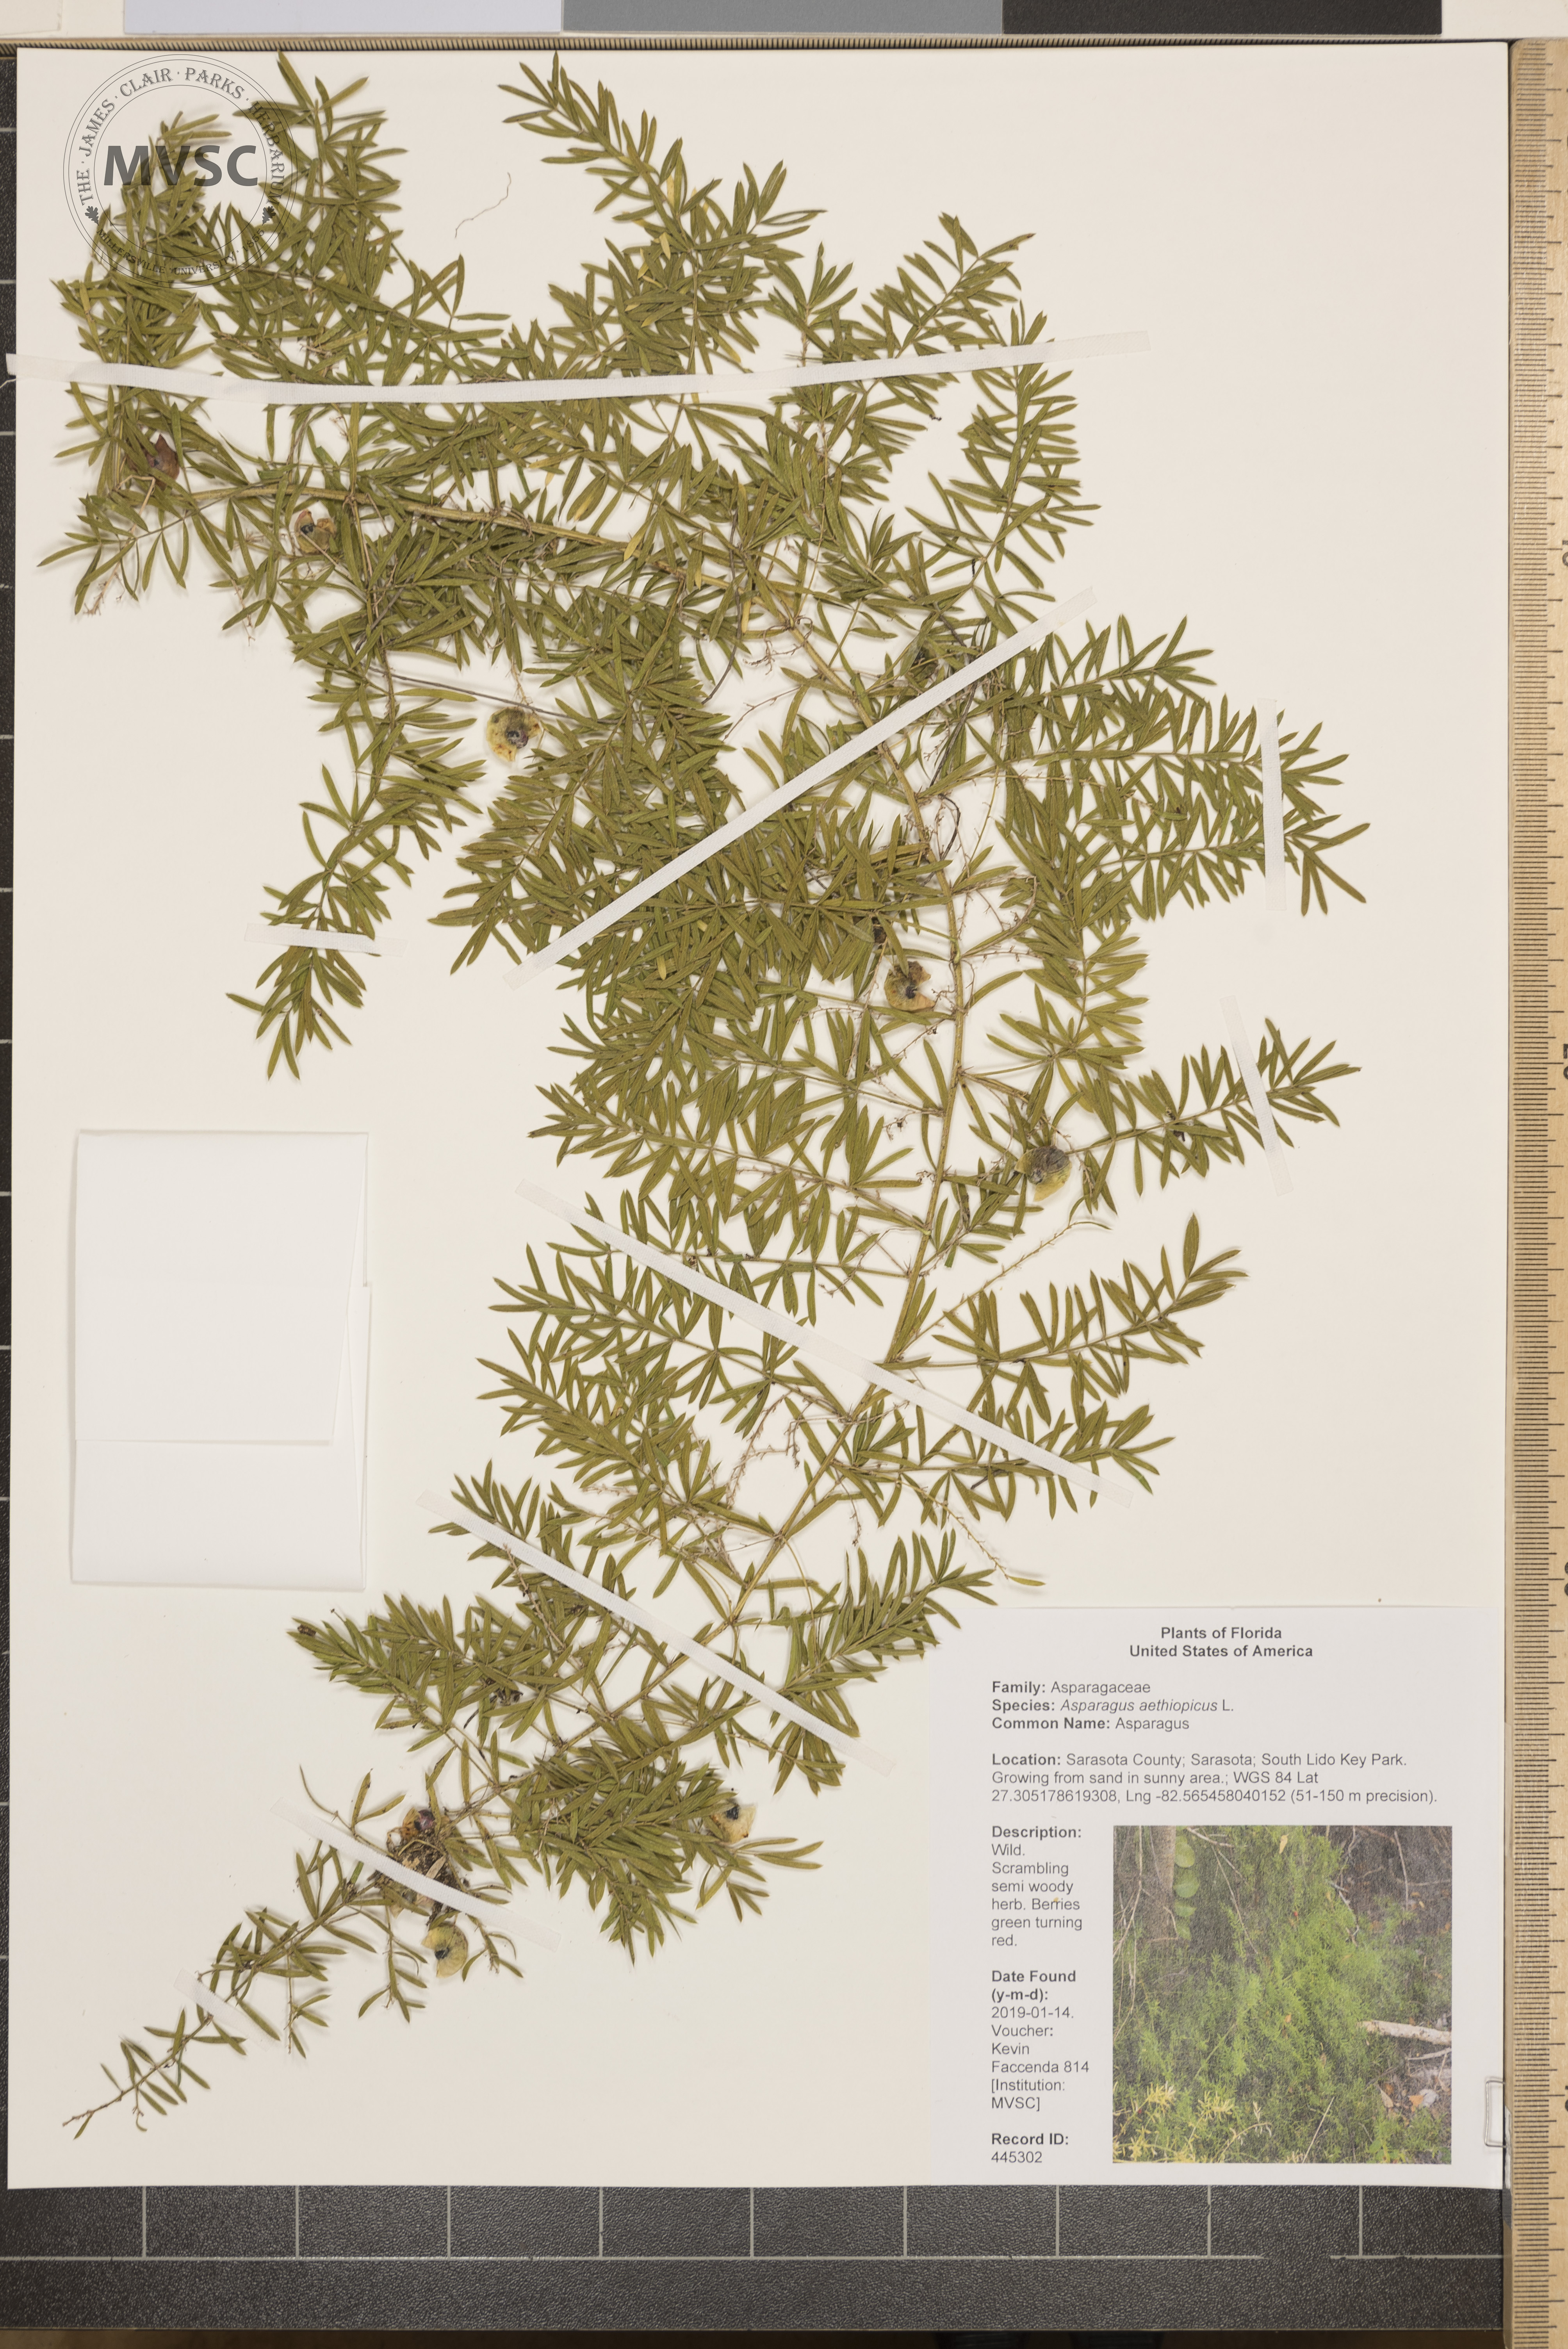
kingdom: Plantae
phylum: Tracheophyta
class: Liliopsida
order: Asparagales
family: Asparagaceae
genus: Asparagus
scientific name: Asparagus aethiopicus
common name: Asparagus
